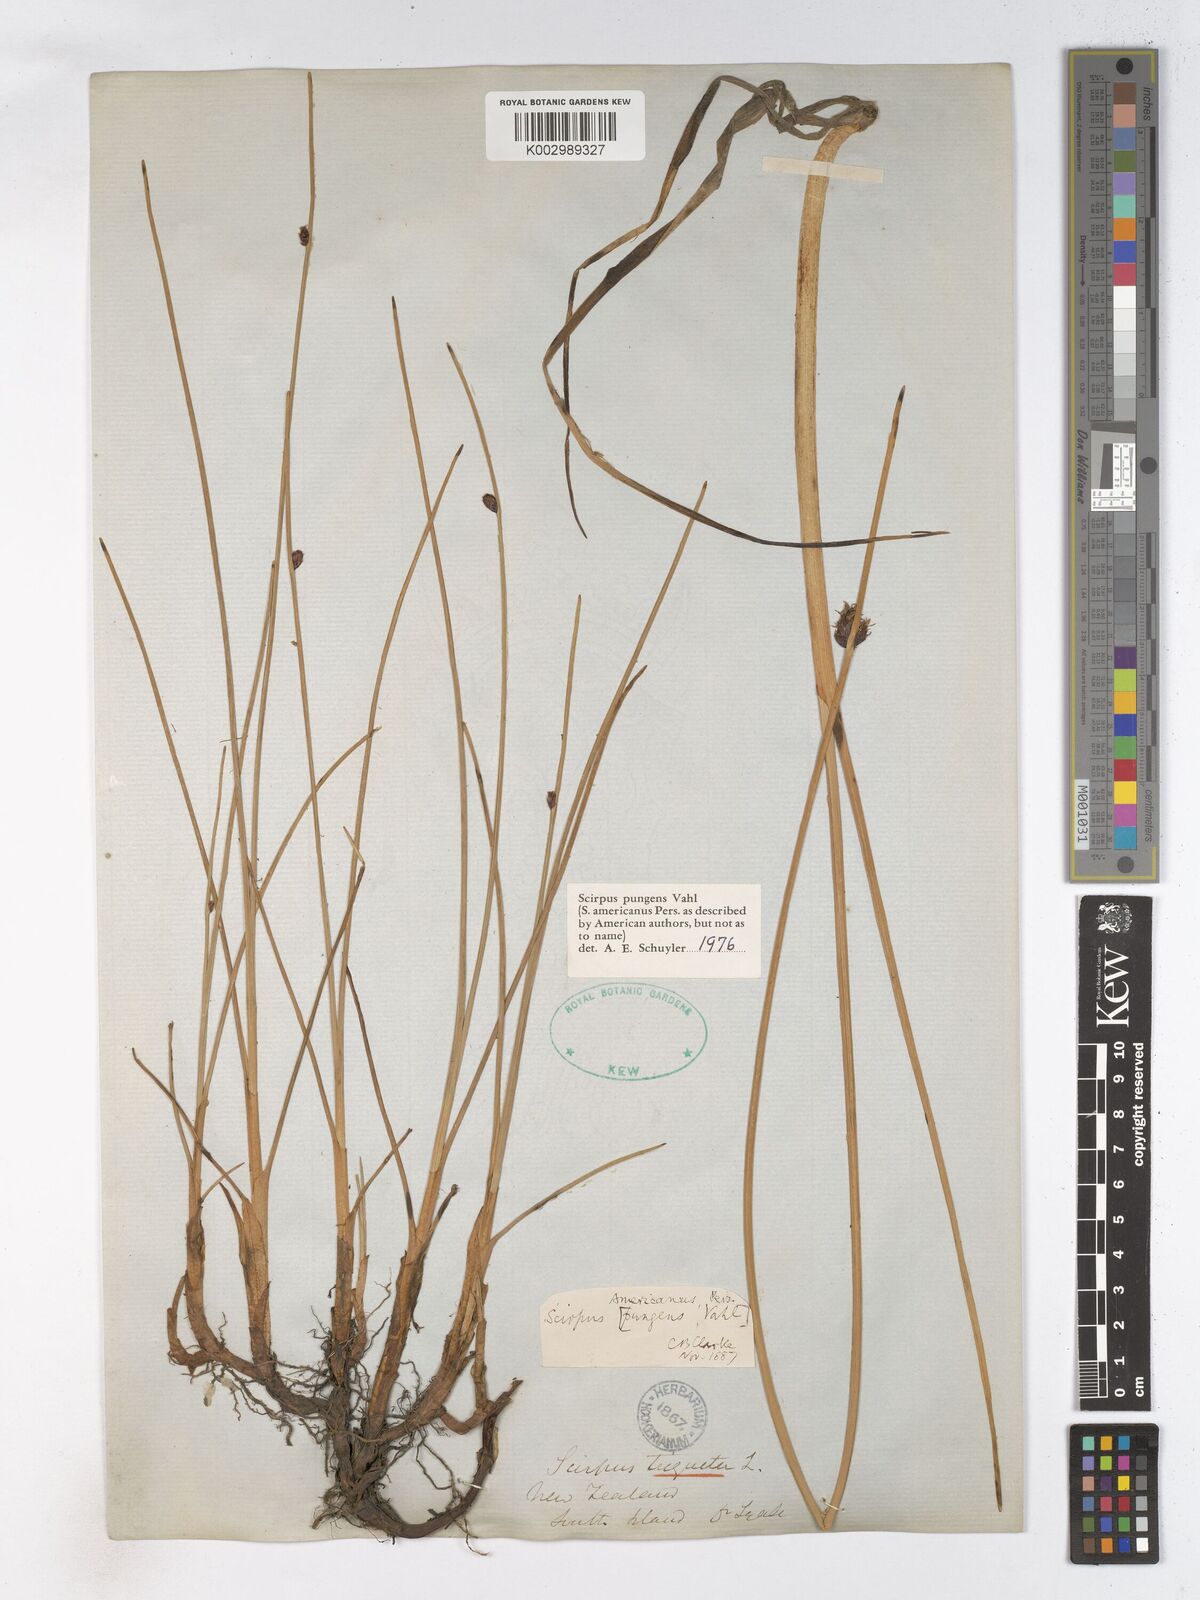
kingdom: Plantae
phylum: Tracheophyta
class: Liliopsida
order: Poales
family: Cyperaceae
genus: Schoenoplectus
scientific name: Schoenoplectus pungens
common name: Sharp club-rush
